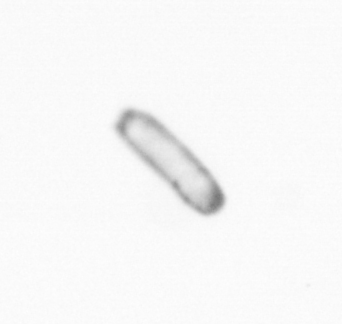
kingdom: Chromista
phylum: Ochrophyta
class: Bacillariophyceae
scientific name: Bacillariophyceae
